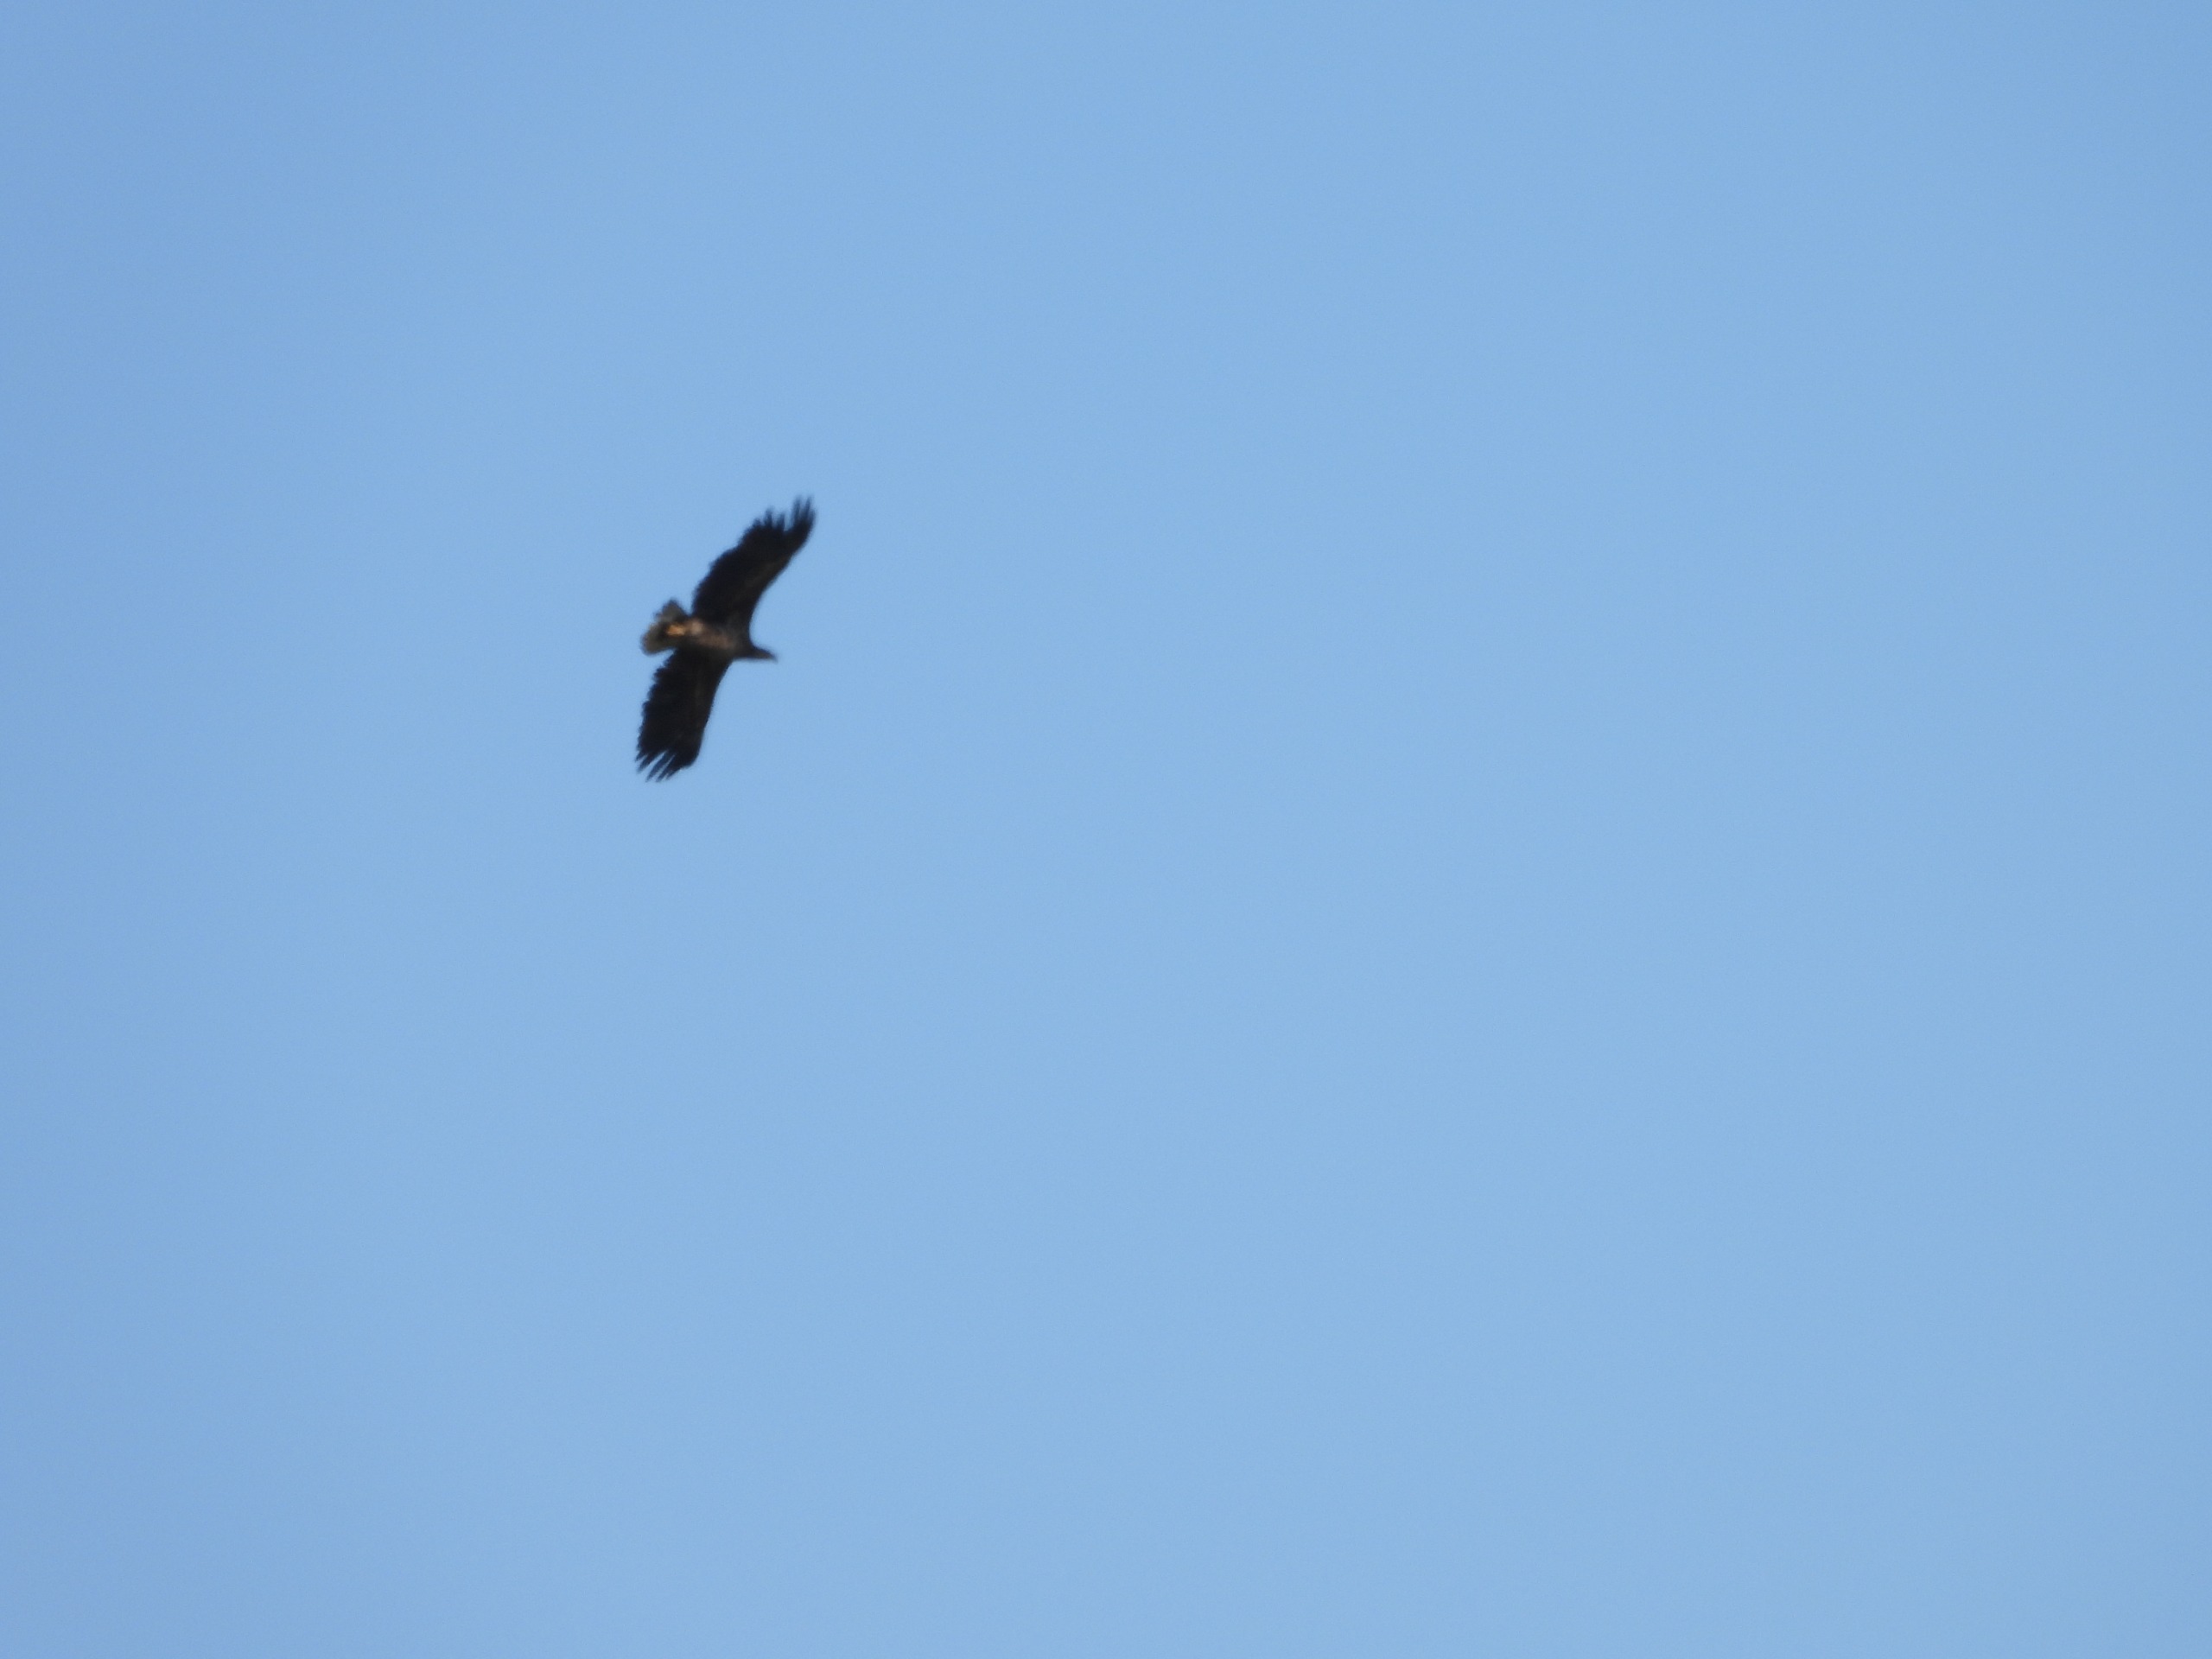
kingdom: Animalia
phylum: Chordata
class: Aves
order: Accipitriformes
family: Accipitridae
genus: Haliaeetus
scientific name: Haliaeetus albicilla
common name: Havørn
